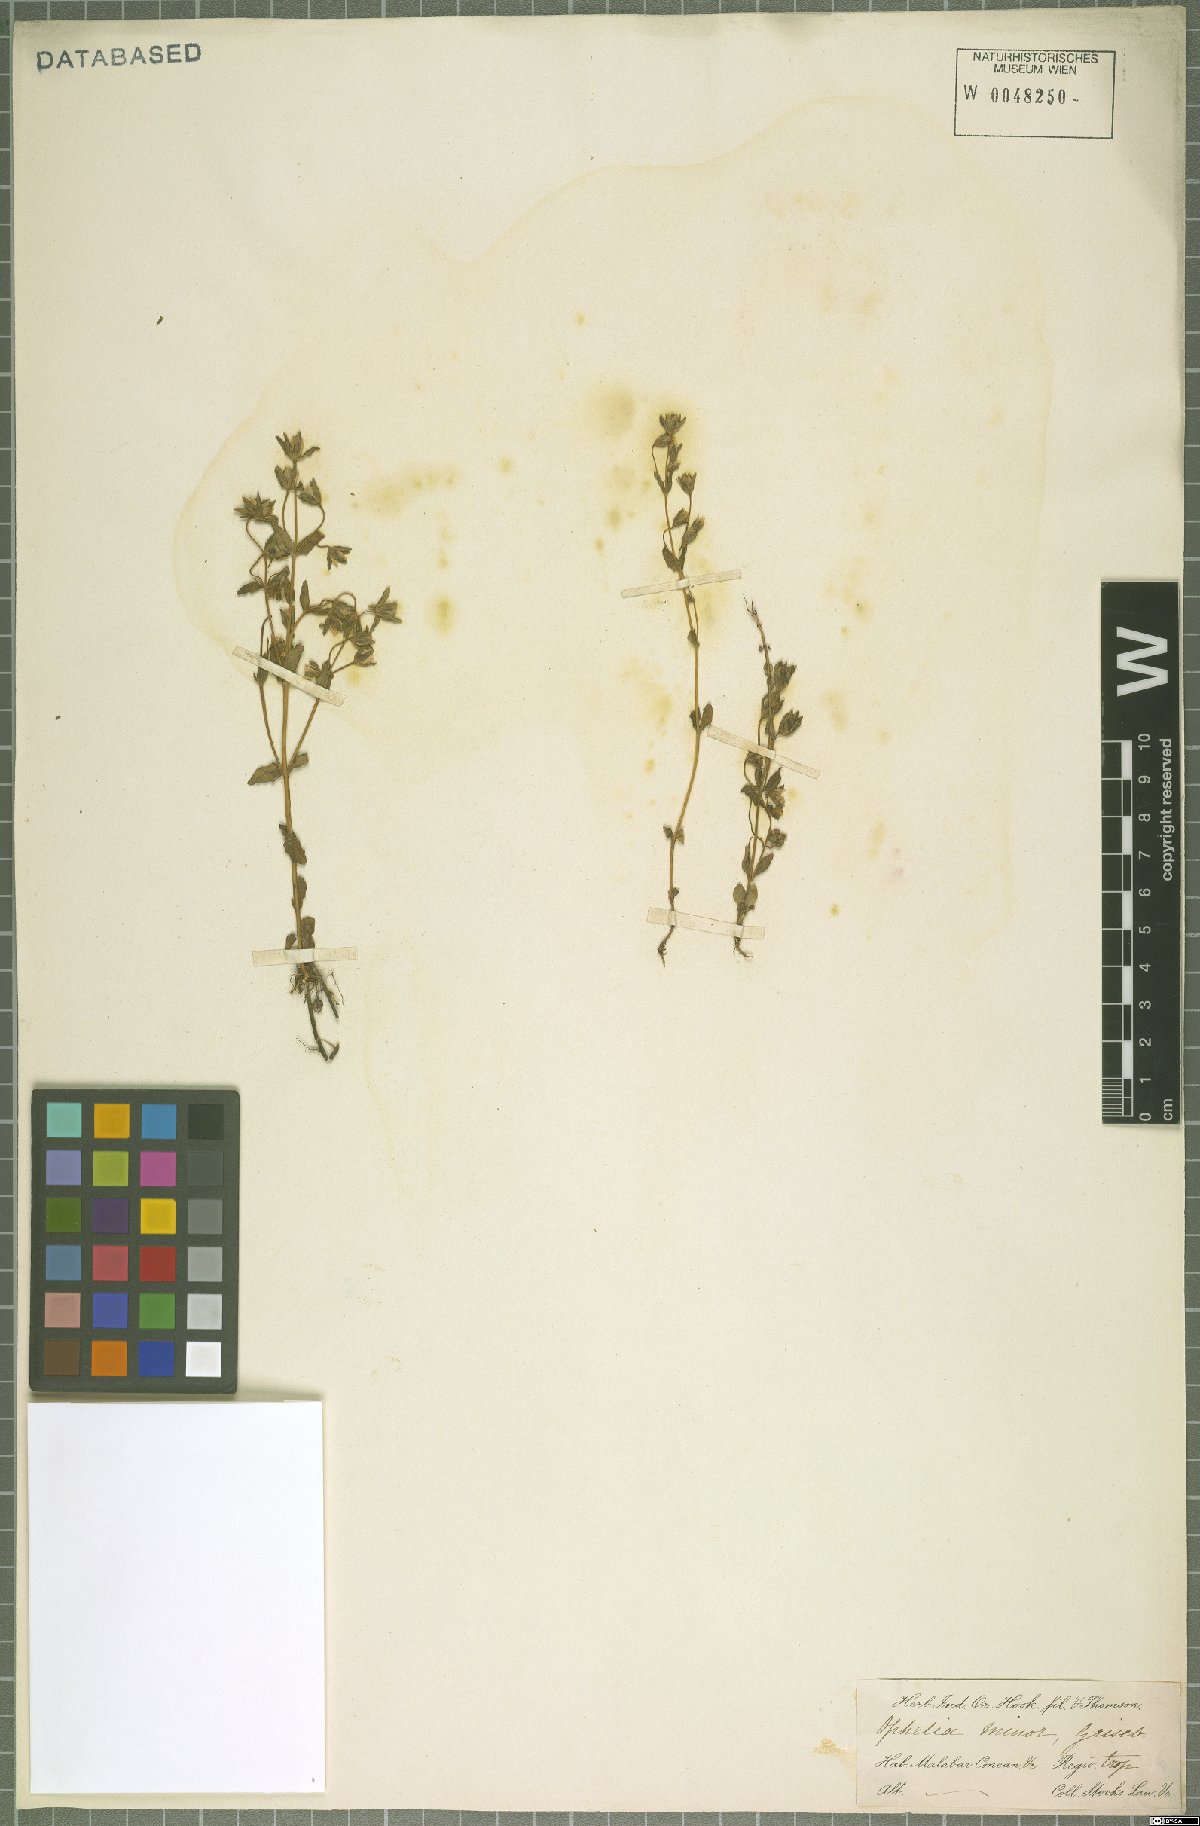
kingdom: Plantae
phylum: Tracheophyta
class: Magnoliopsida
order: Gentianales
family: Gentianaceae
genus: Lomatogonium
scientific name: Lomatogonium minus
